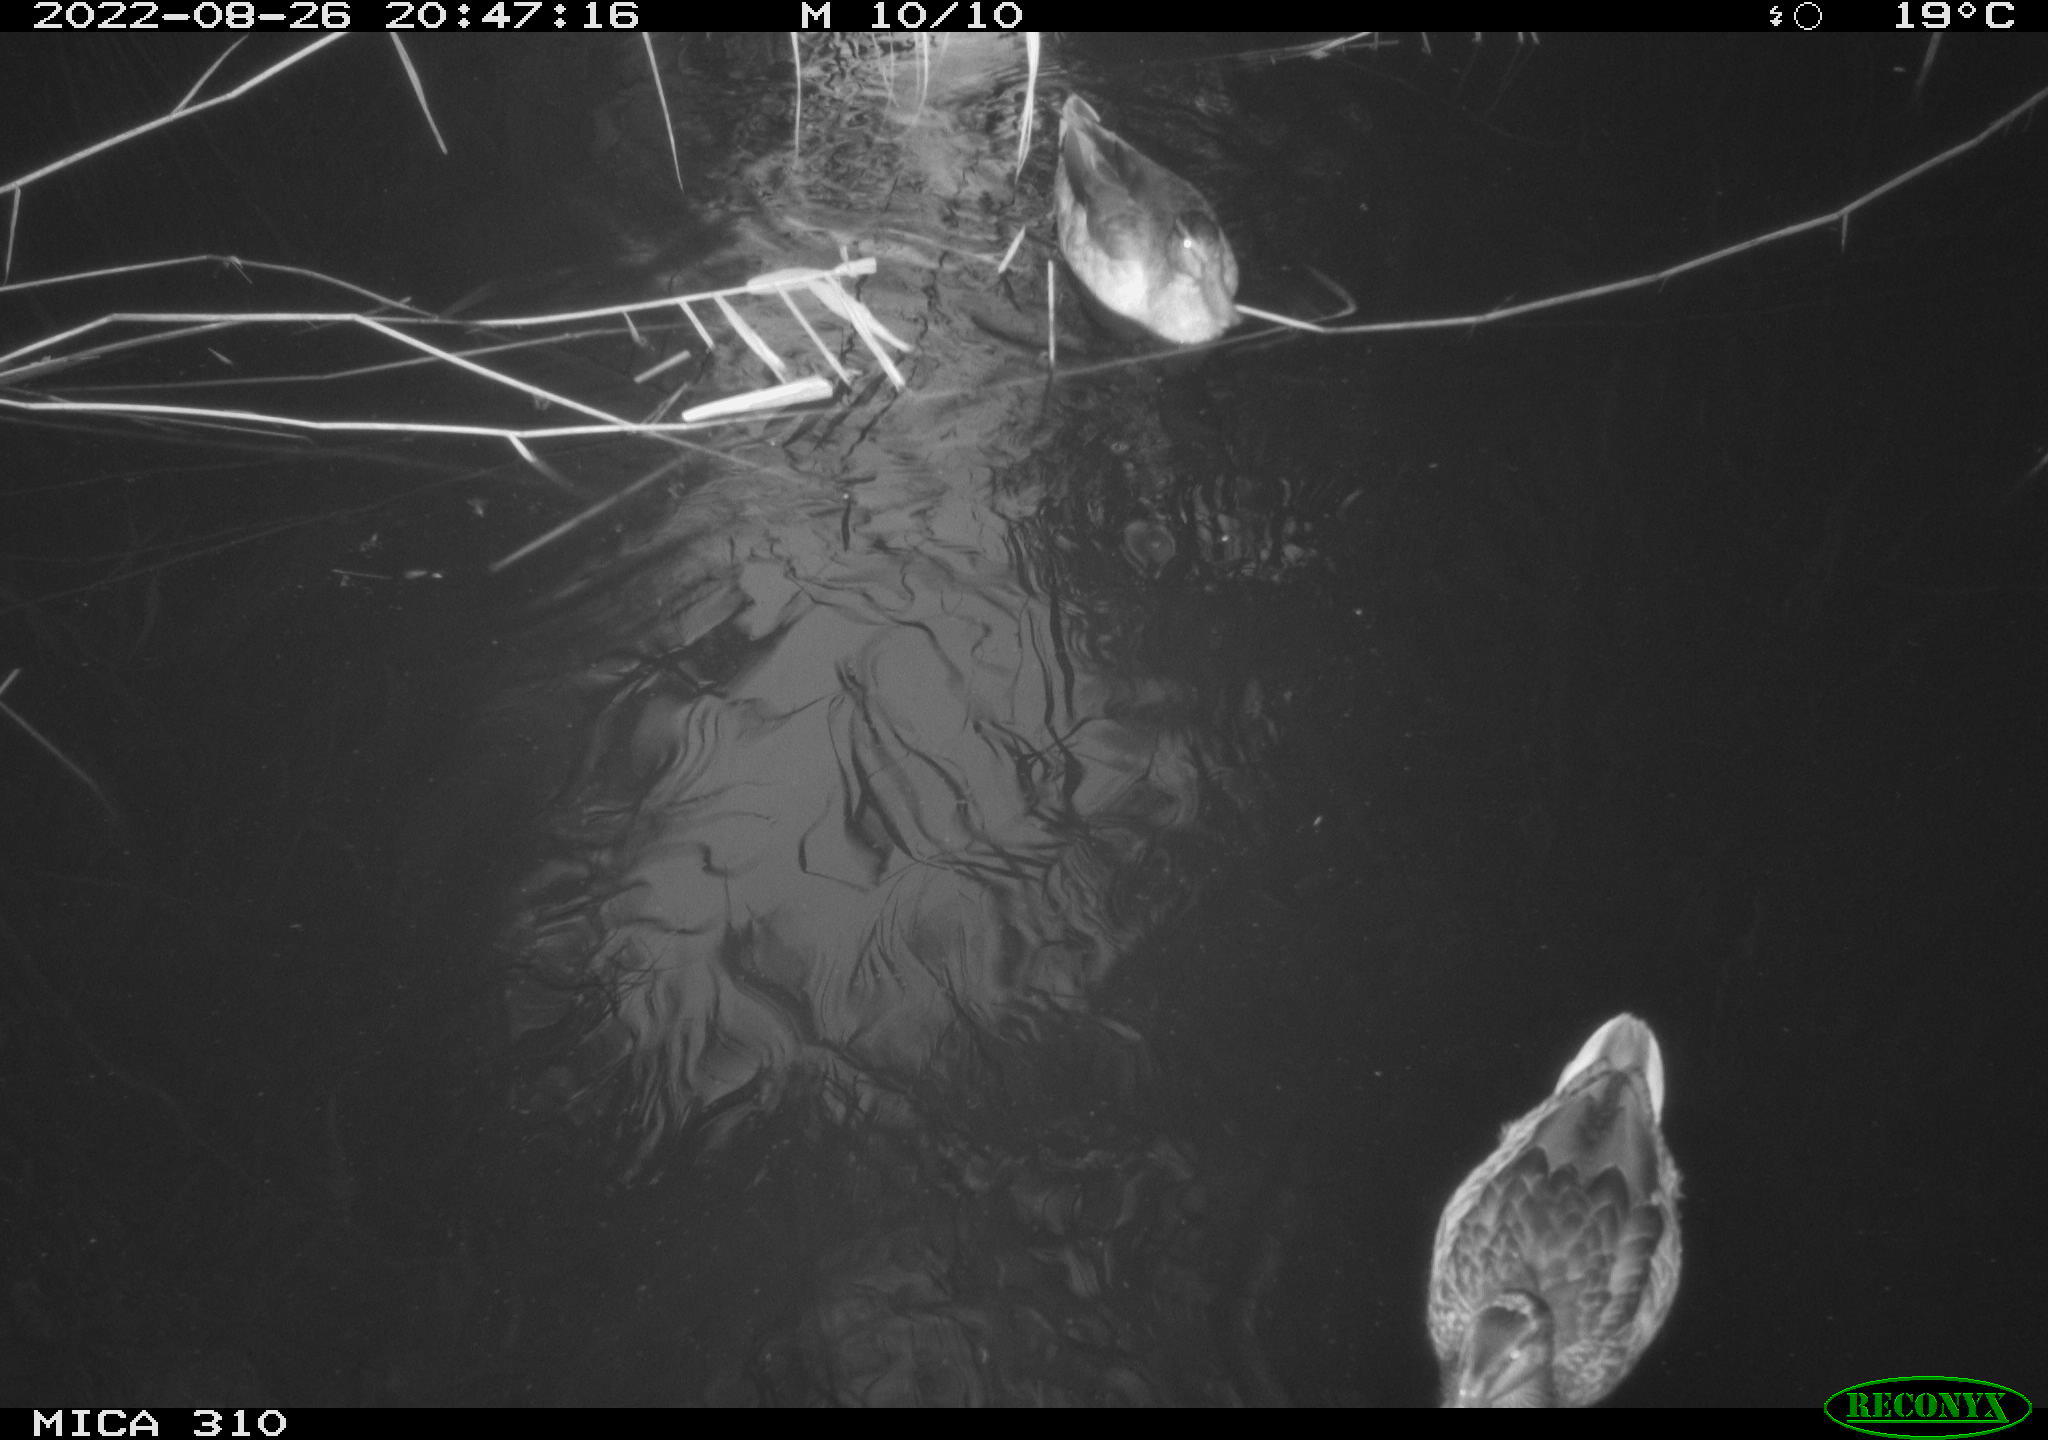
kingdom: Animalia
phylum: Chordata
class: Aves
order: Anseriformes
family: Anatidae
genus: Anas
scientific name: Anas platyrhynchos
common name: Mallard
